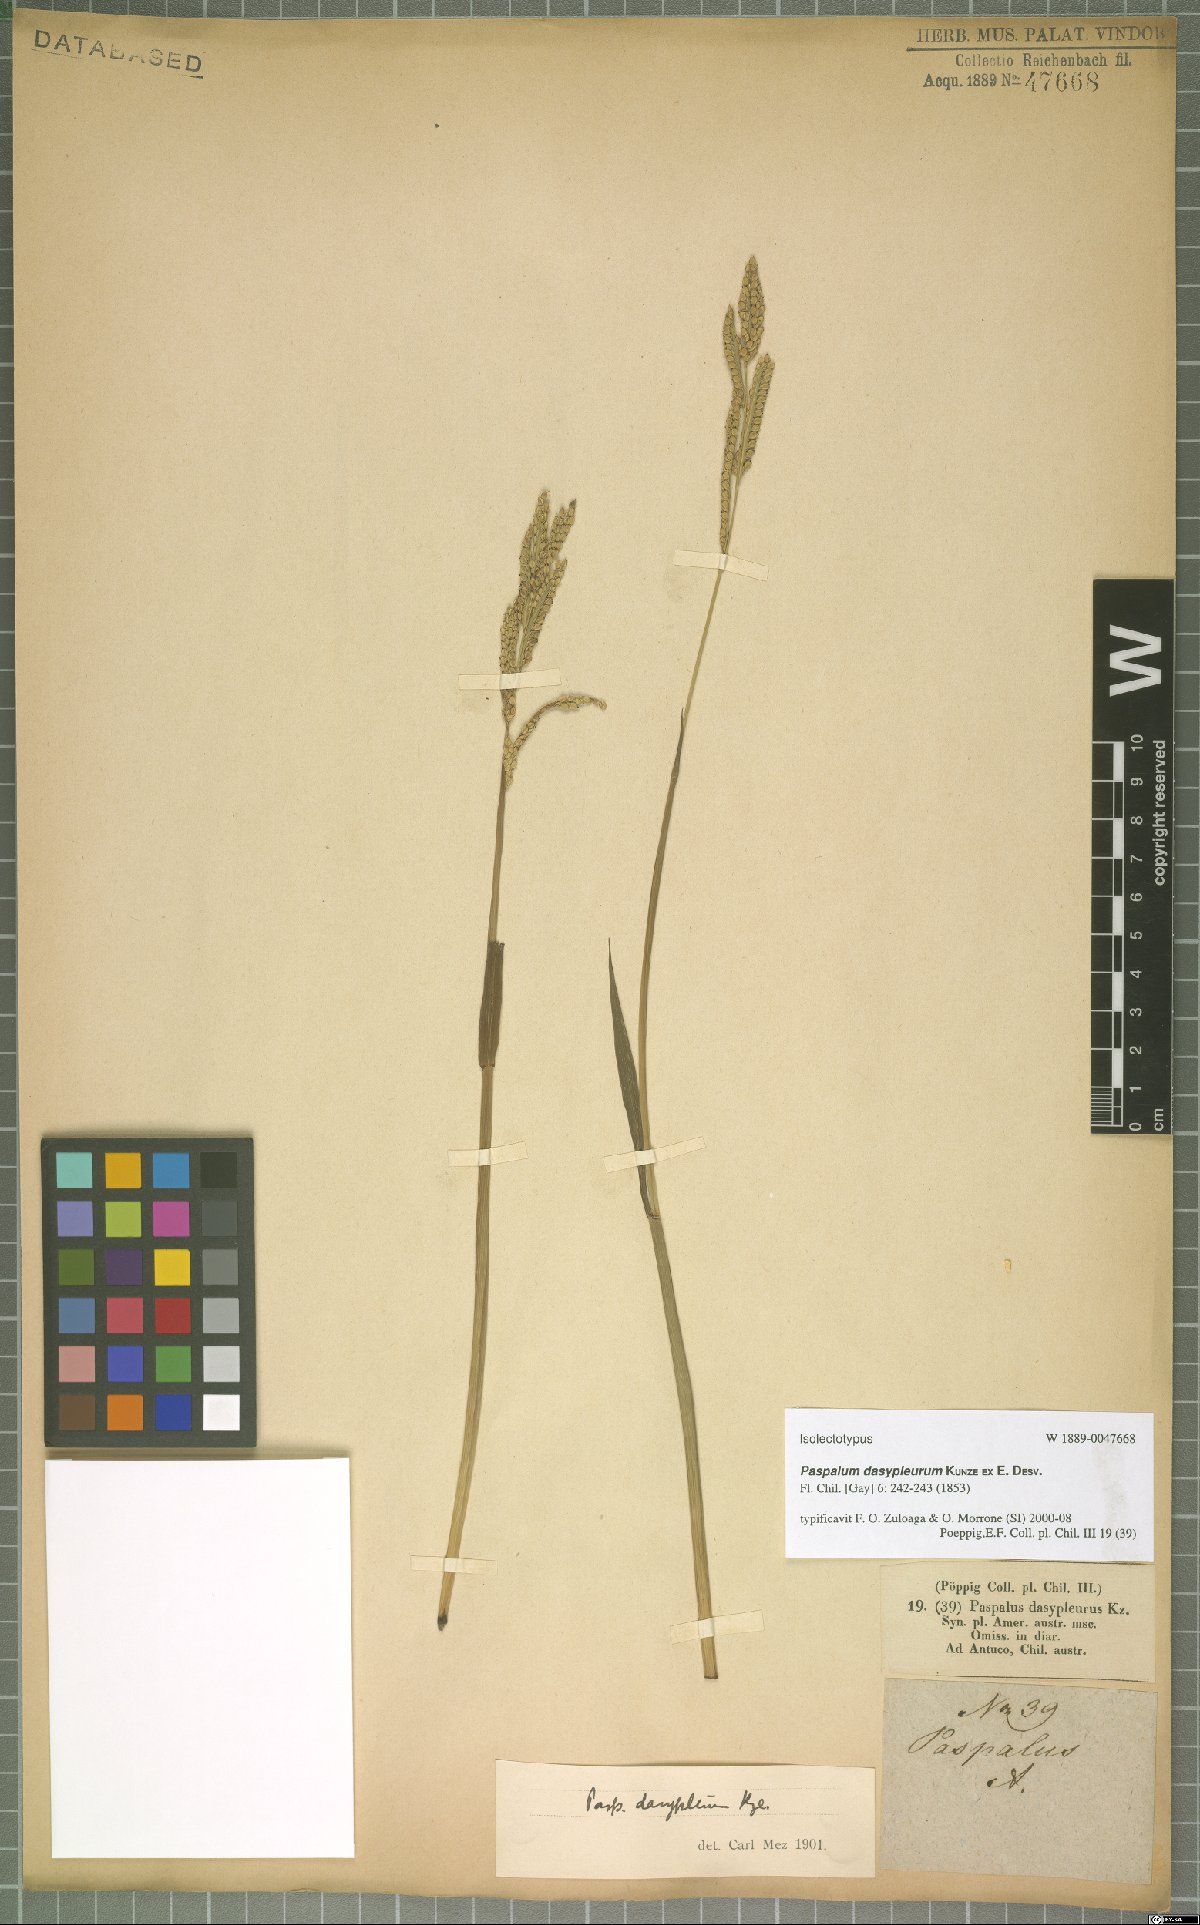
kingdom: Plantae
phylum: Tracheophyta
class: Liliopsida
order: Poales
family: Poaceae
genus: Paspalum
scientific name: Paspalum dasypleurum
